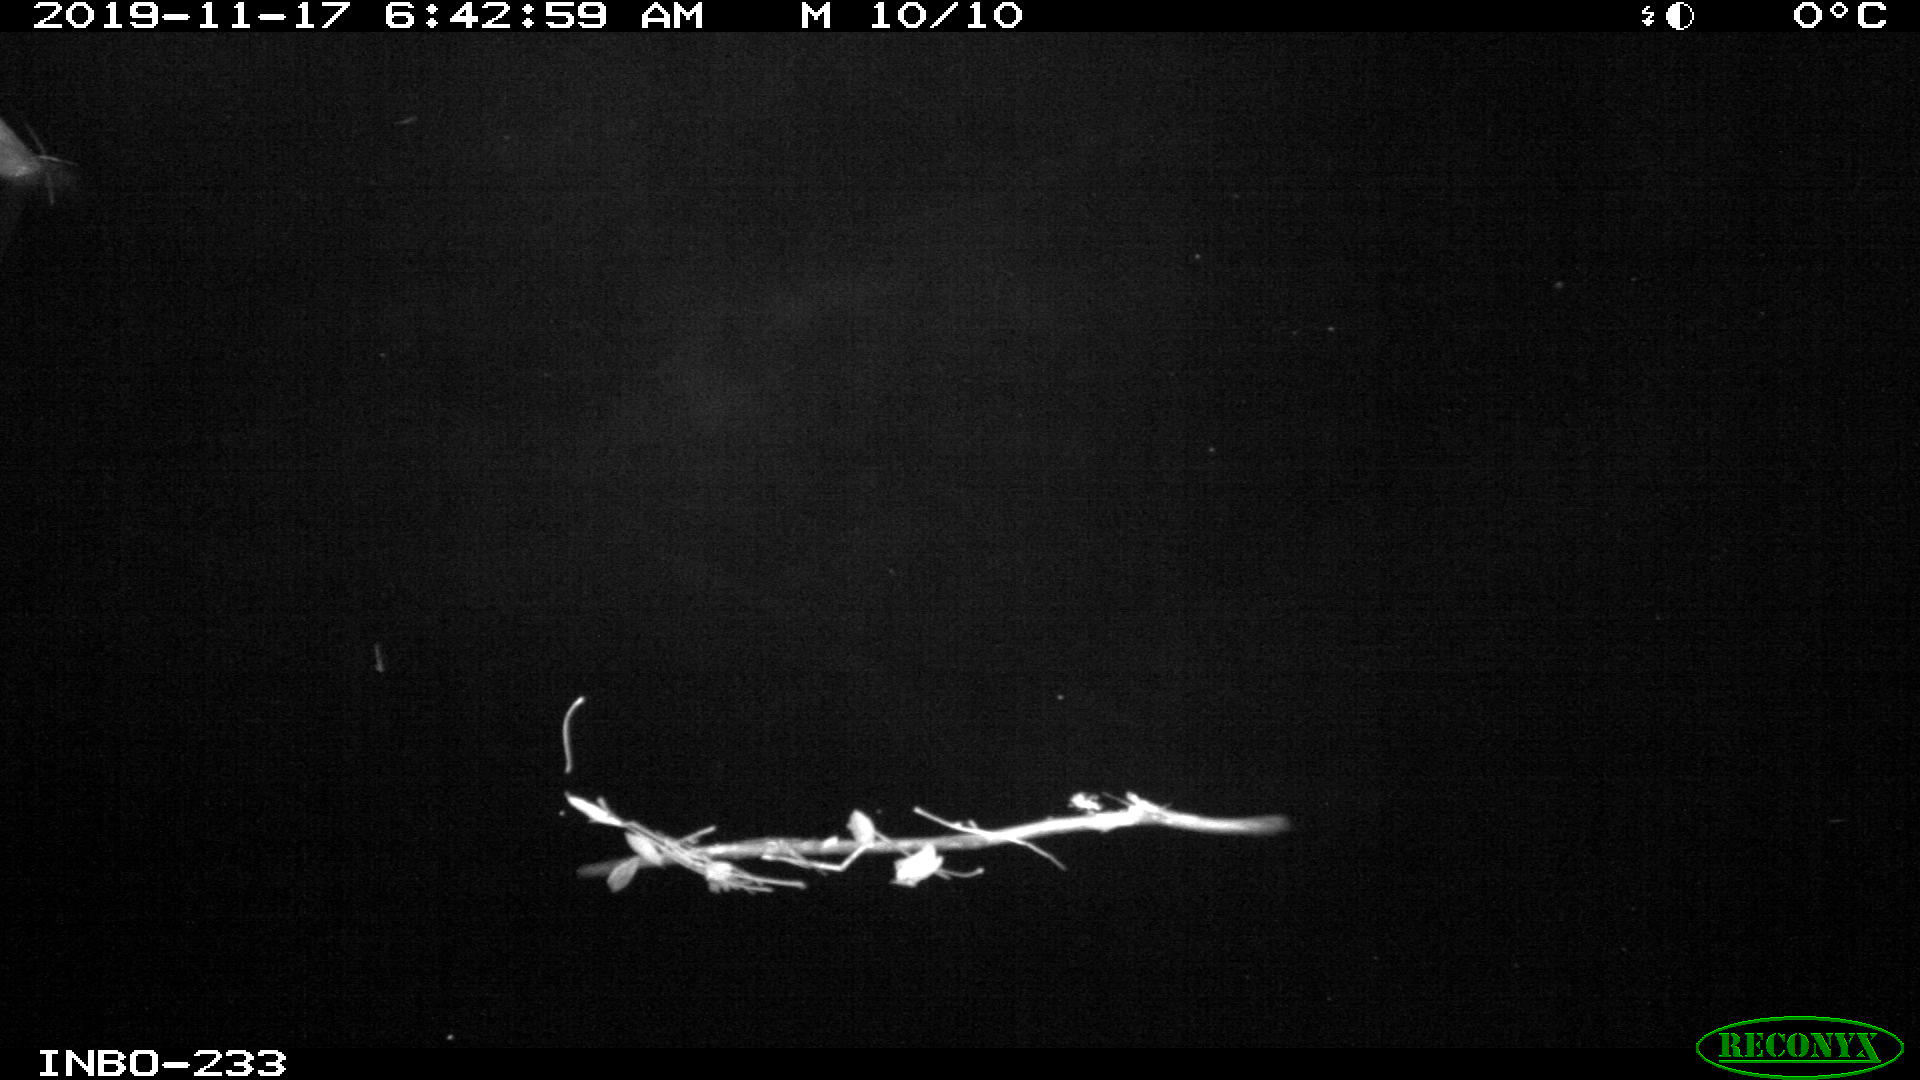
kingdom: Animalia
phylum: Chordata
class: Aves
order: Anseriformes
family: Anatidae
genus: Anas
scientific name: Anas platyrhynchos
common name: Mallard
